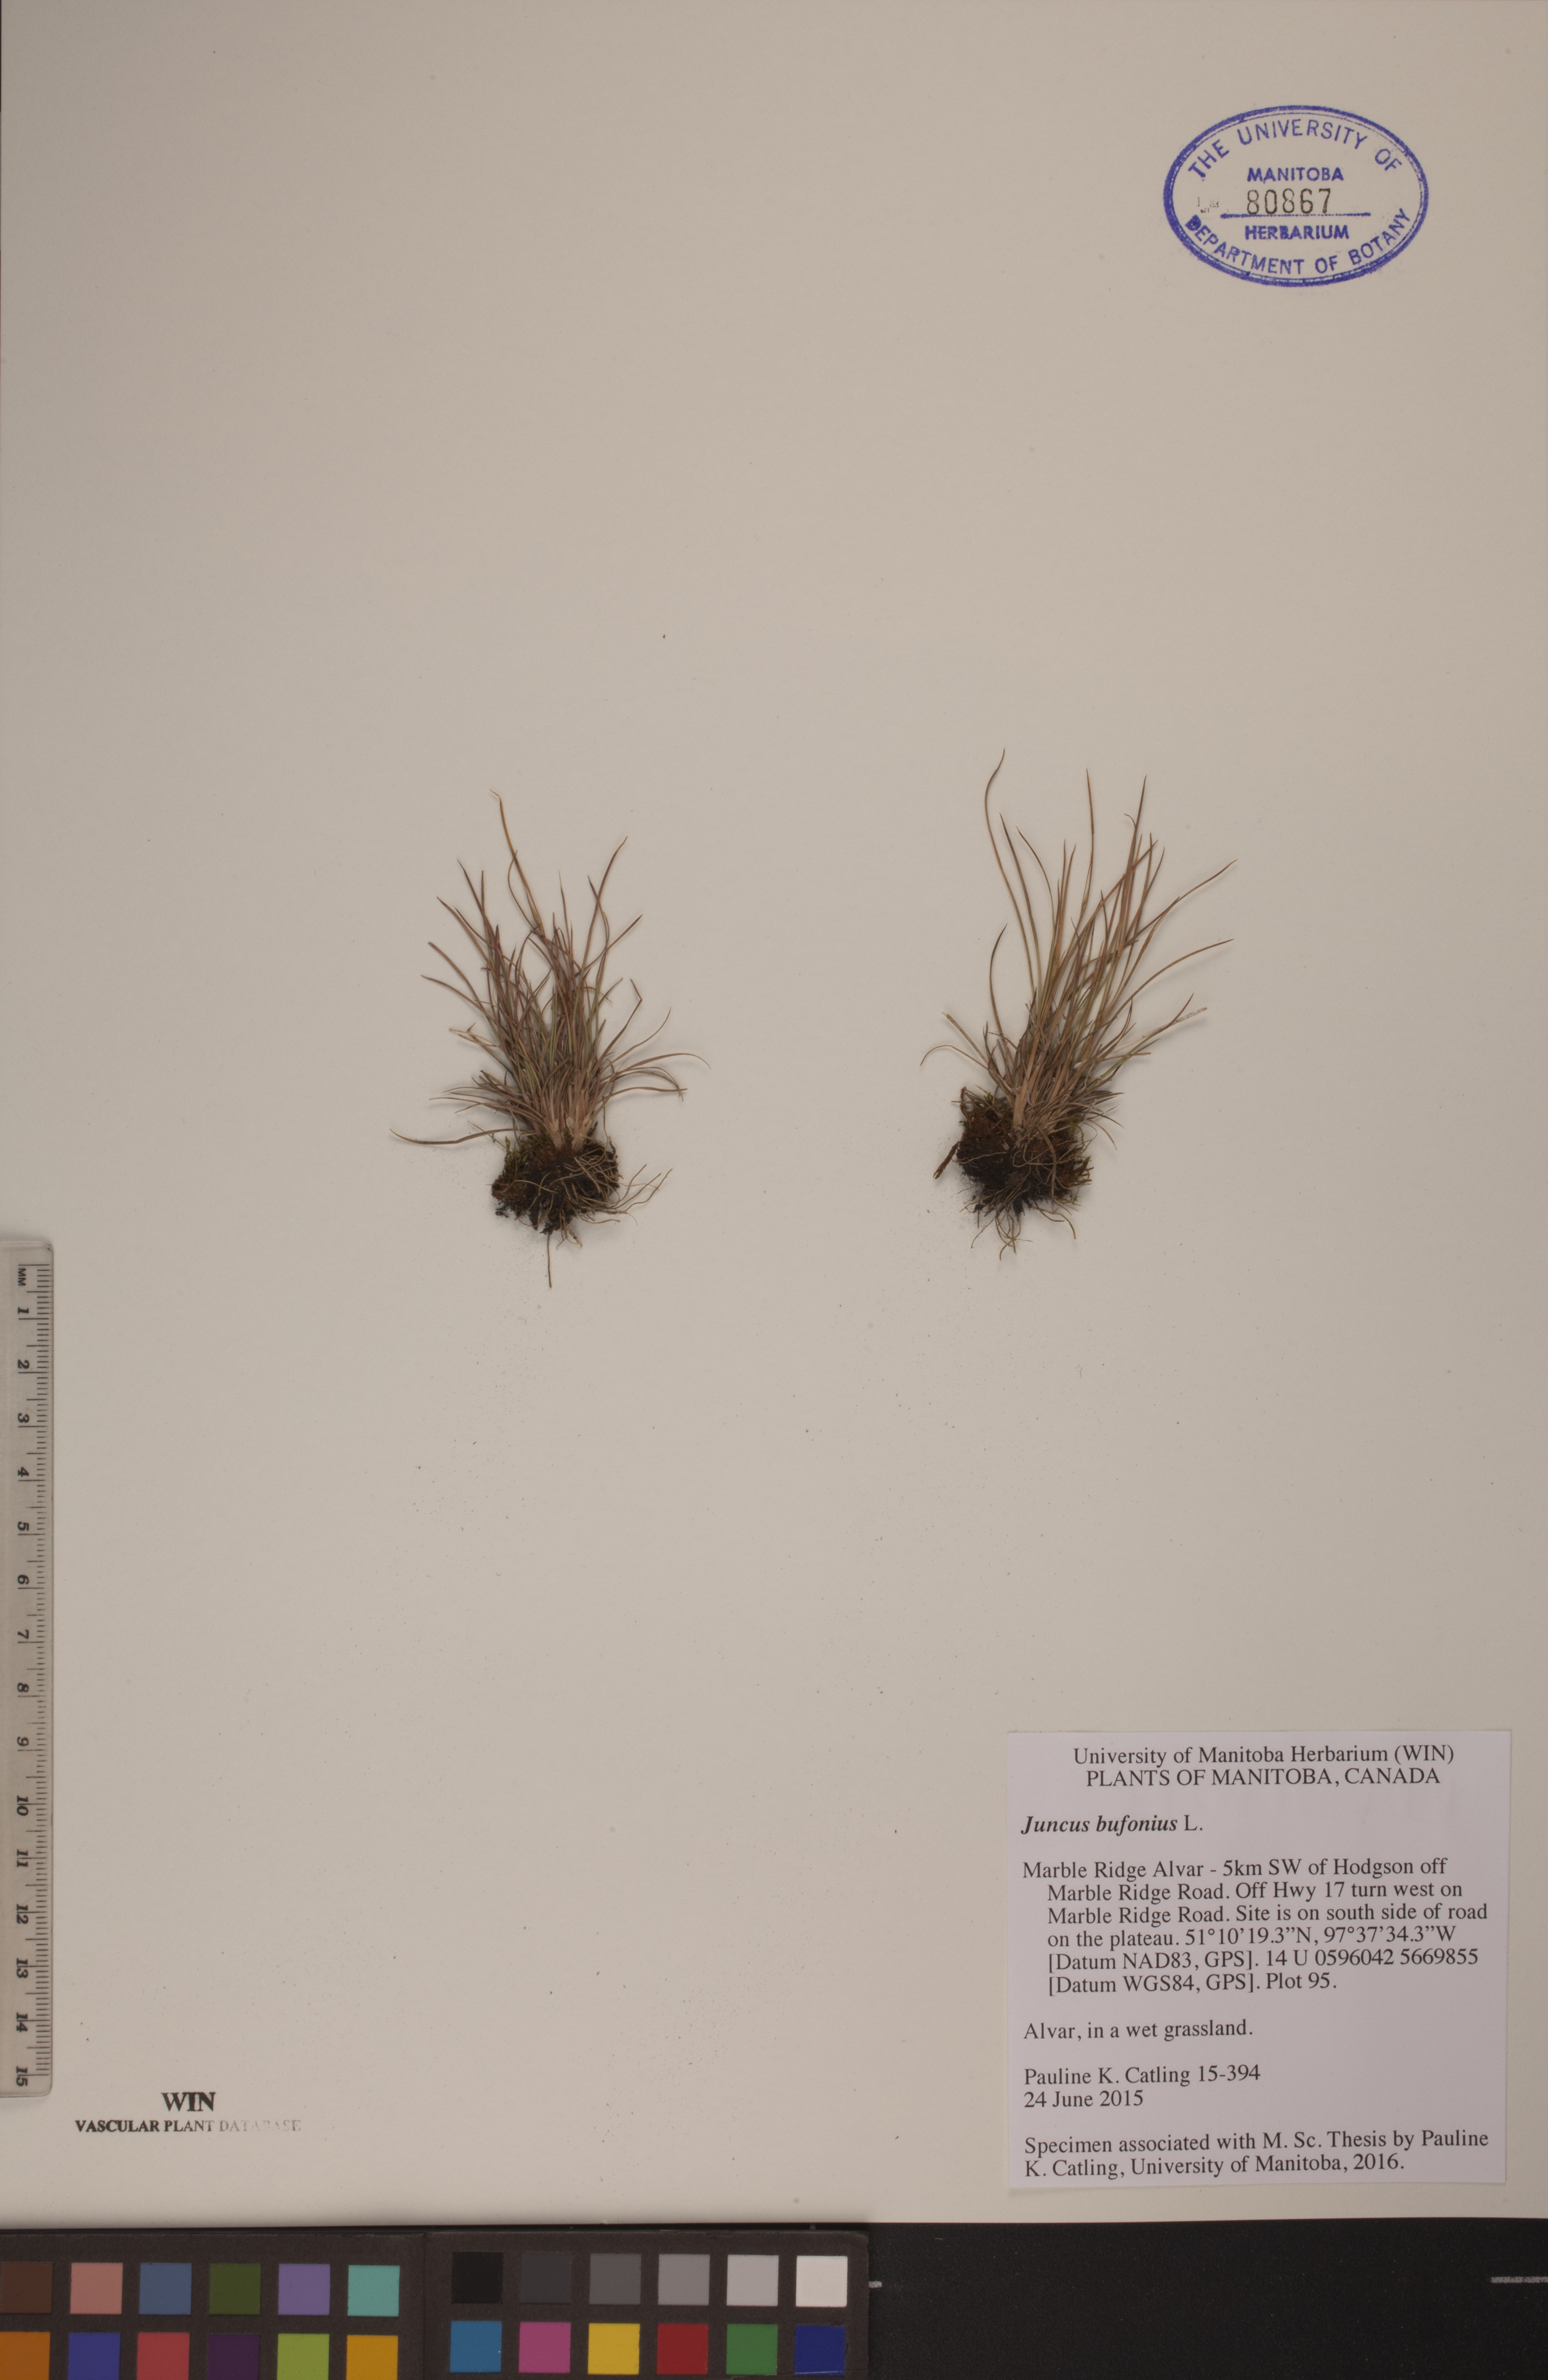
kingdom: Plantae
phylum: Tracheophyta
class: Liliopsida
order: Poales
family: Juncaceae
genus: Juncus
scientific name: Juncus bufonius
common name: Toad rush
